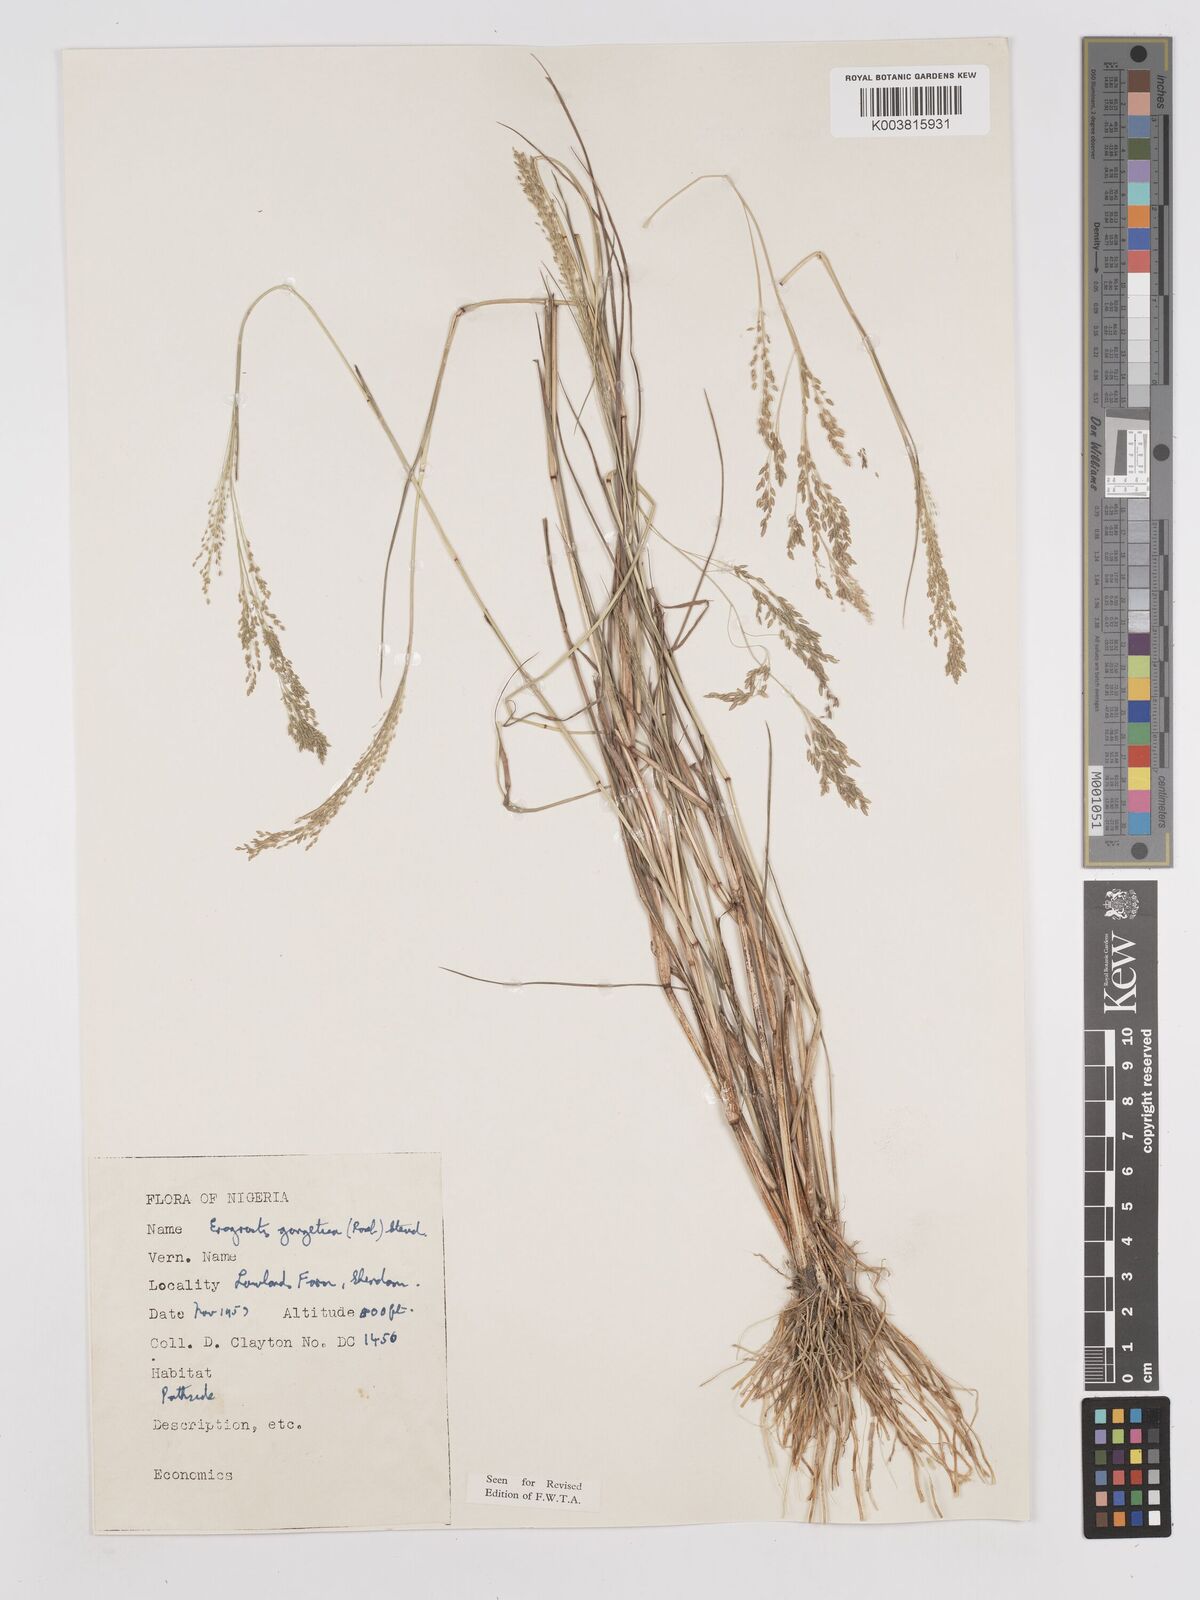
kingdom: Plantae
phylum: Tracheophyta
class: Liliopsida
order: Poales
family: Poaceae
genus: Eragrostis
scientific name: Eragrostis gangetica
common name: Slimflower lovegrass
